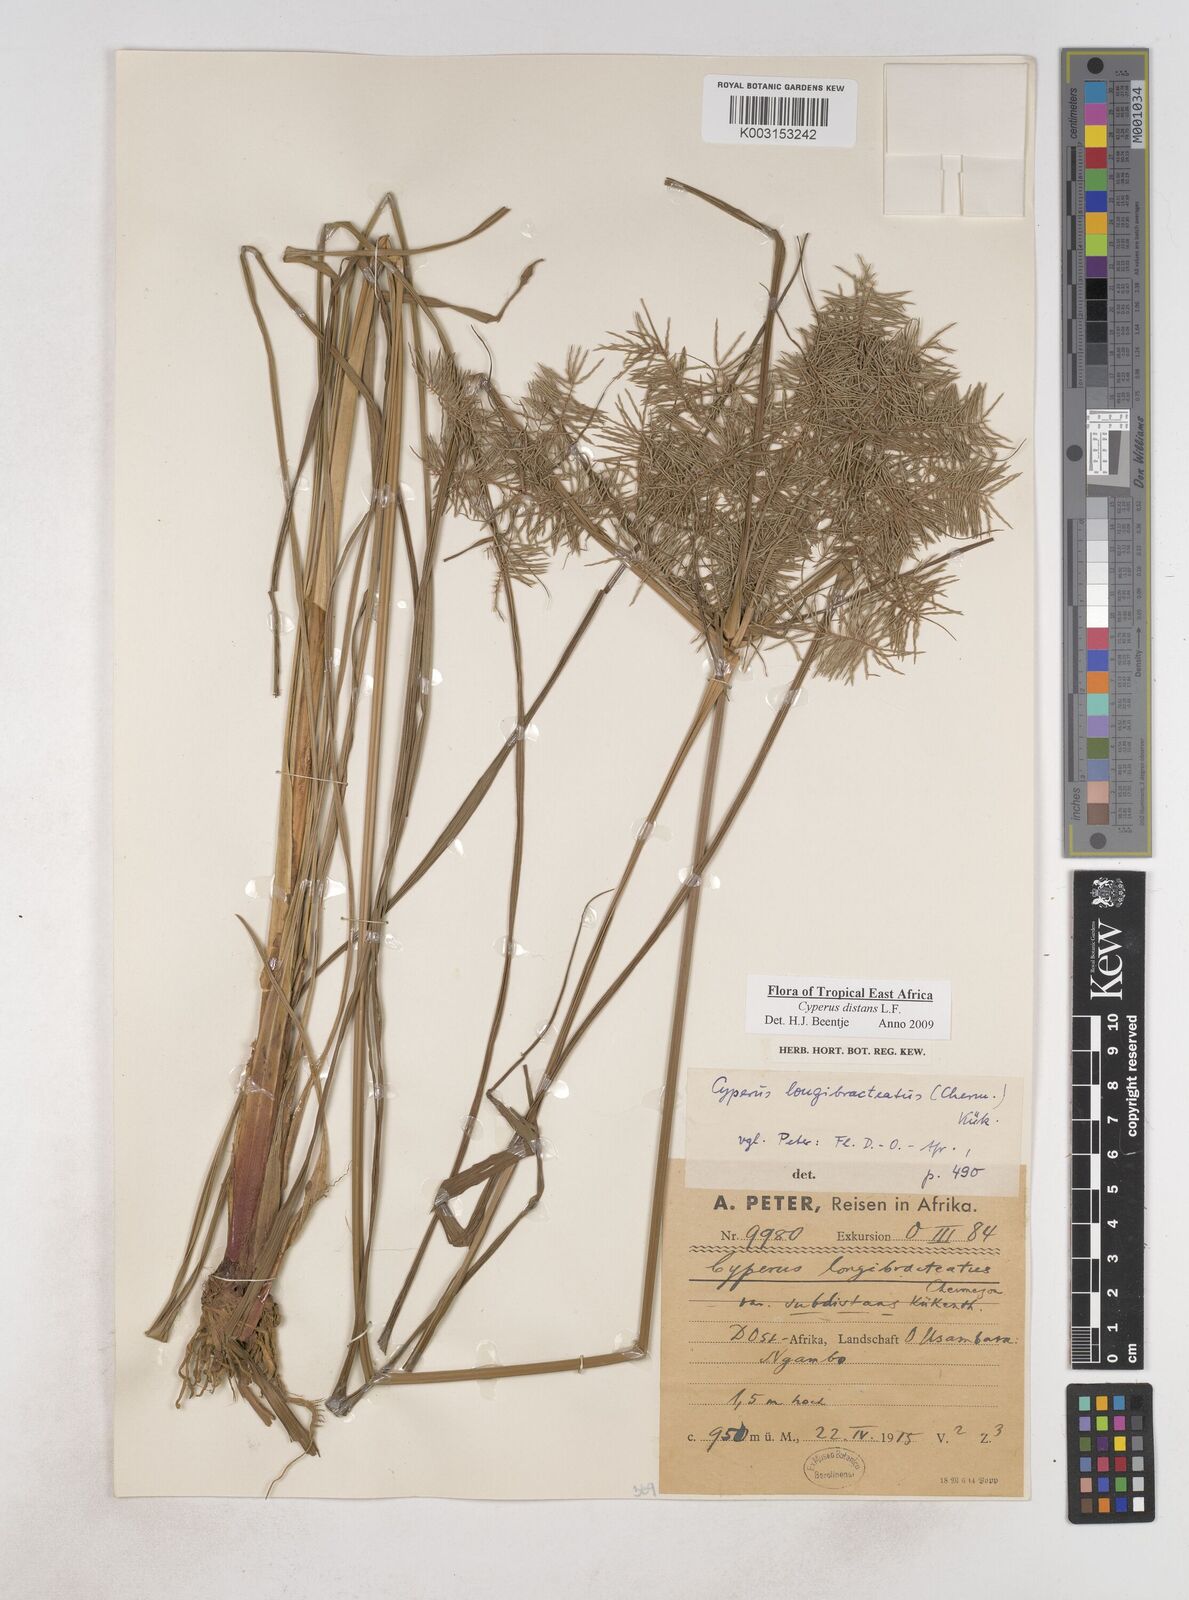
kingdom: Plantae
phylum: Tracheophyta
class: Liliopsida
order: Poales
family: Cyperaceae
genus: Cyperus
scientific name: Cyperus distans
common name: Slender cyperus
